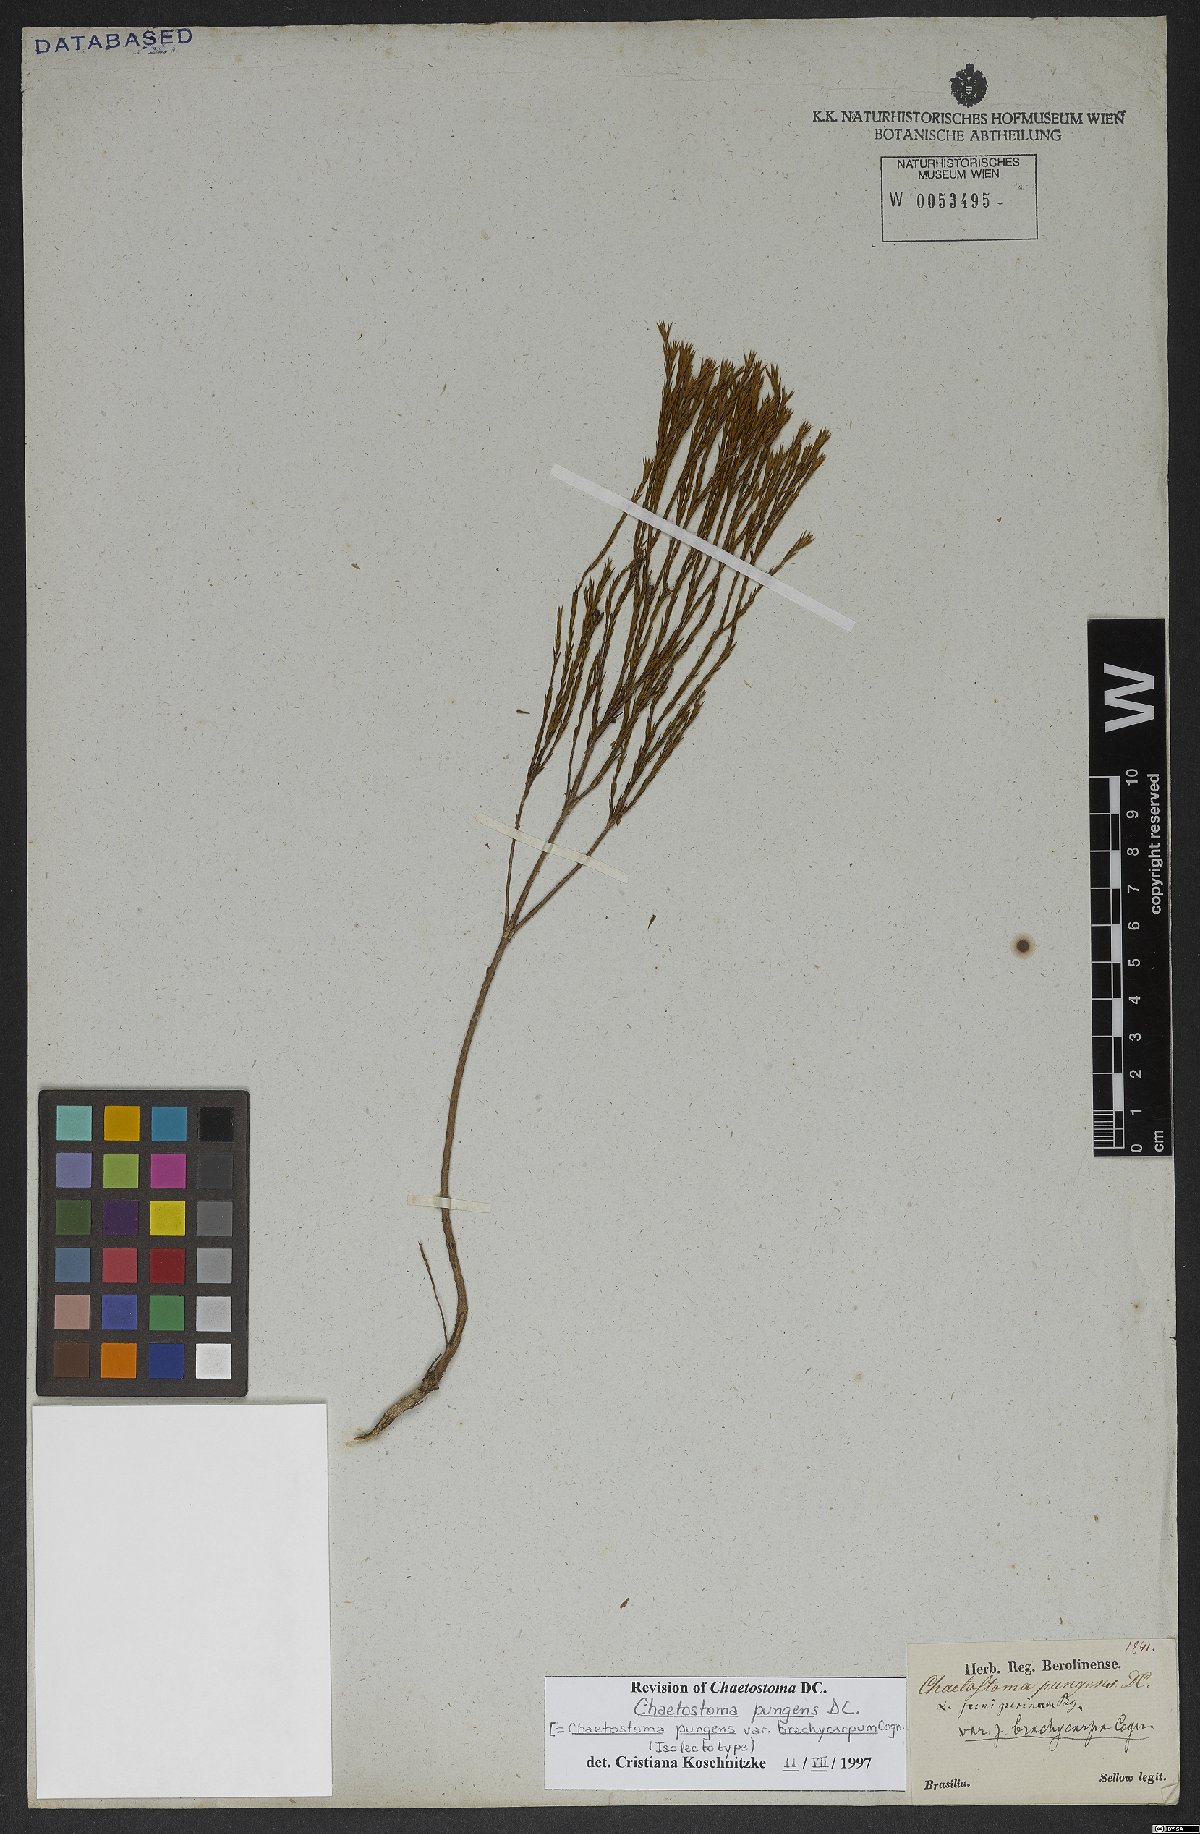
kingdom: Plantae
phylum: Tracheophyta
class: Magnoliopsida
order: Myrtales
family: Melastomataceae
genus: Microlicia
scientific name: Microlicia armata
